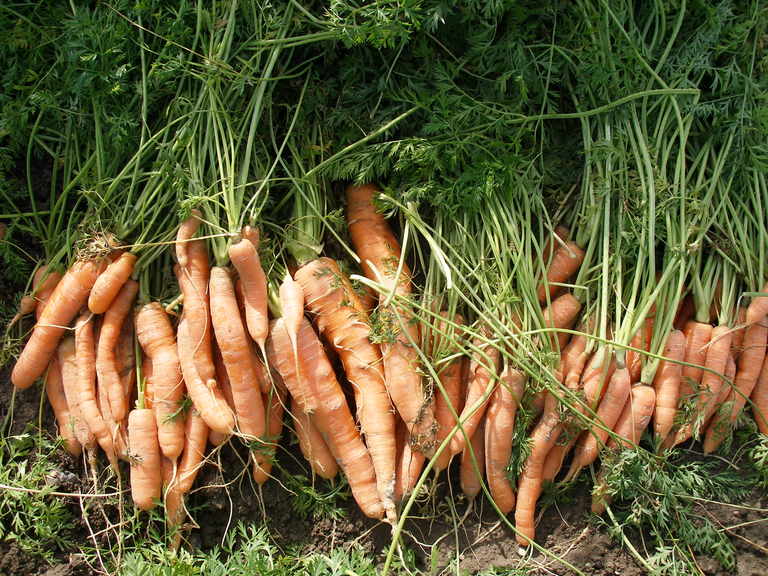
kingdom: Plantae
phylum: Tracheophyta
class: Magnoliopsida
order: Apiales
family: Apiaceae
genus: Daucus
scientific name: Daucus carota
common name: Wild carrot
